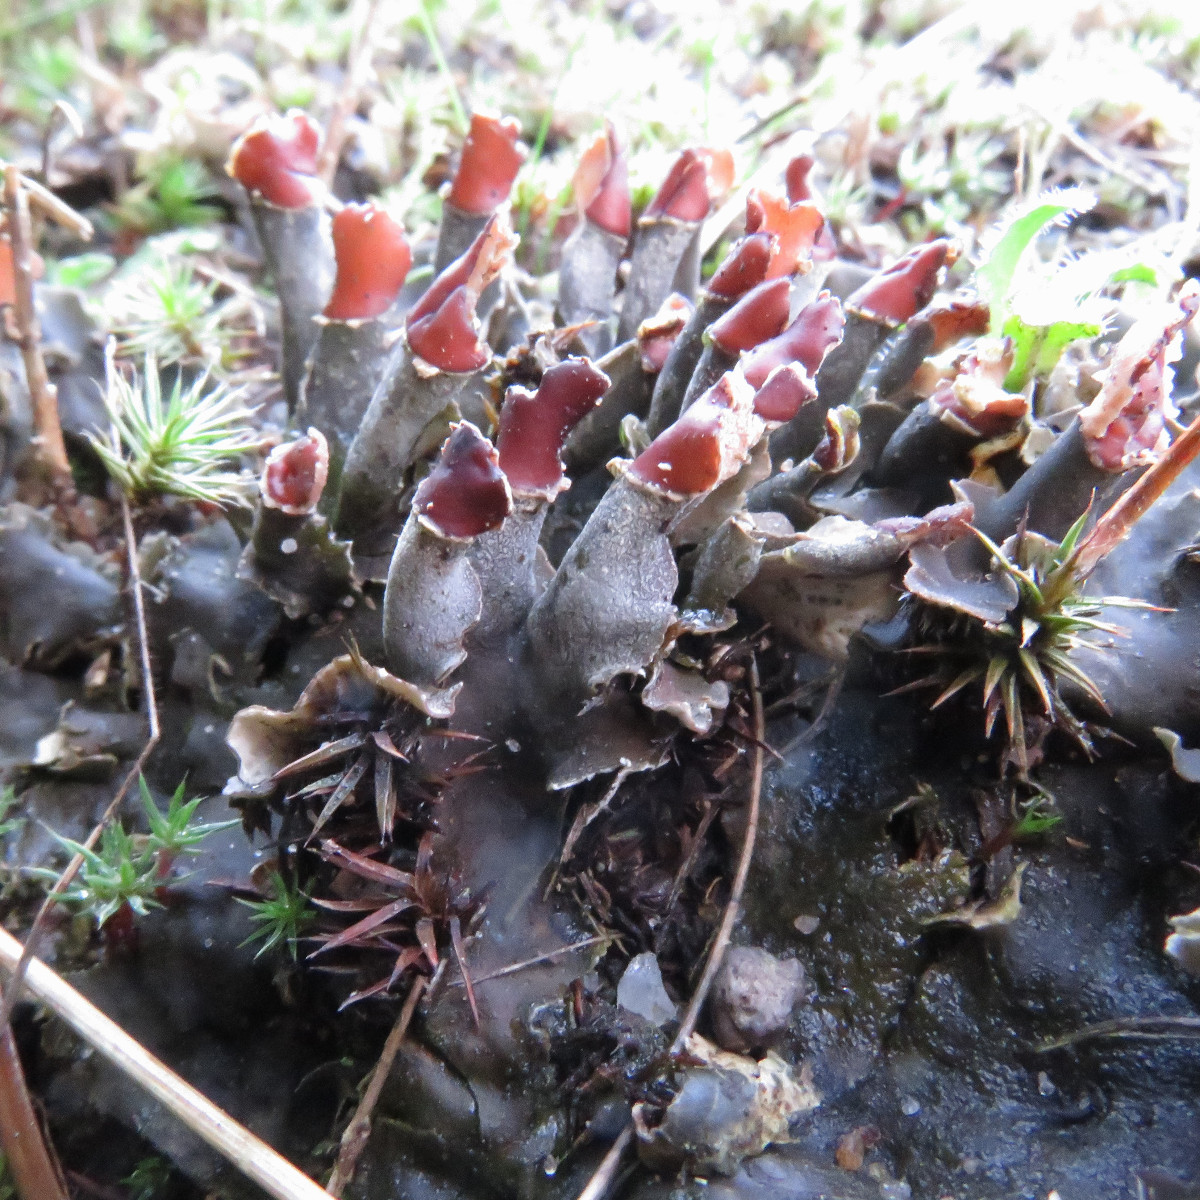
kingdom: Fungi
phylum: Ascomycota
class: Lecanoromycetes
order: Peltigerales
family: Peltigeraceae
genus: Peltigera
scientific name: Peltigera rufescens
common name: brun skjoldlav
